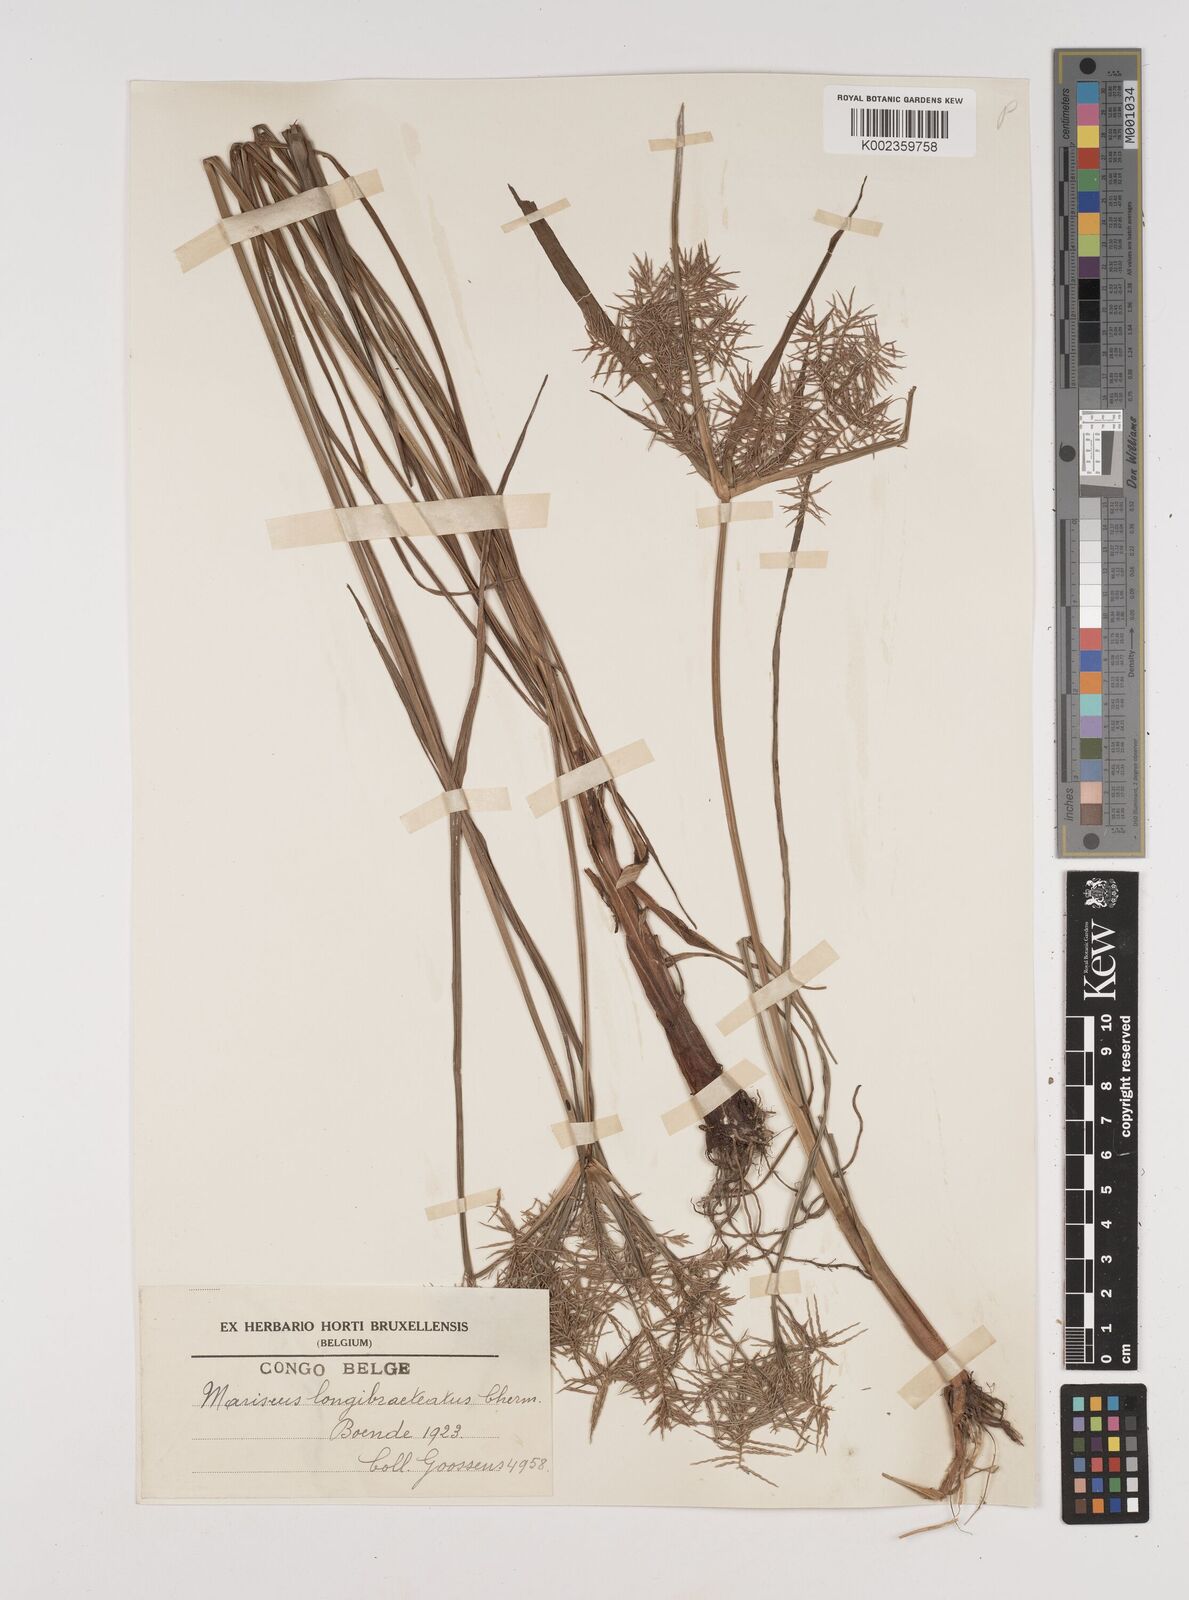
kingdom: Plantae
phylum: Tracheophyta
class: Liliopsida
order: Poales
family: Cyperaceae
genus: Cyperus
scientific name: Cyperus distans
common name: Slender cyperus
